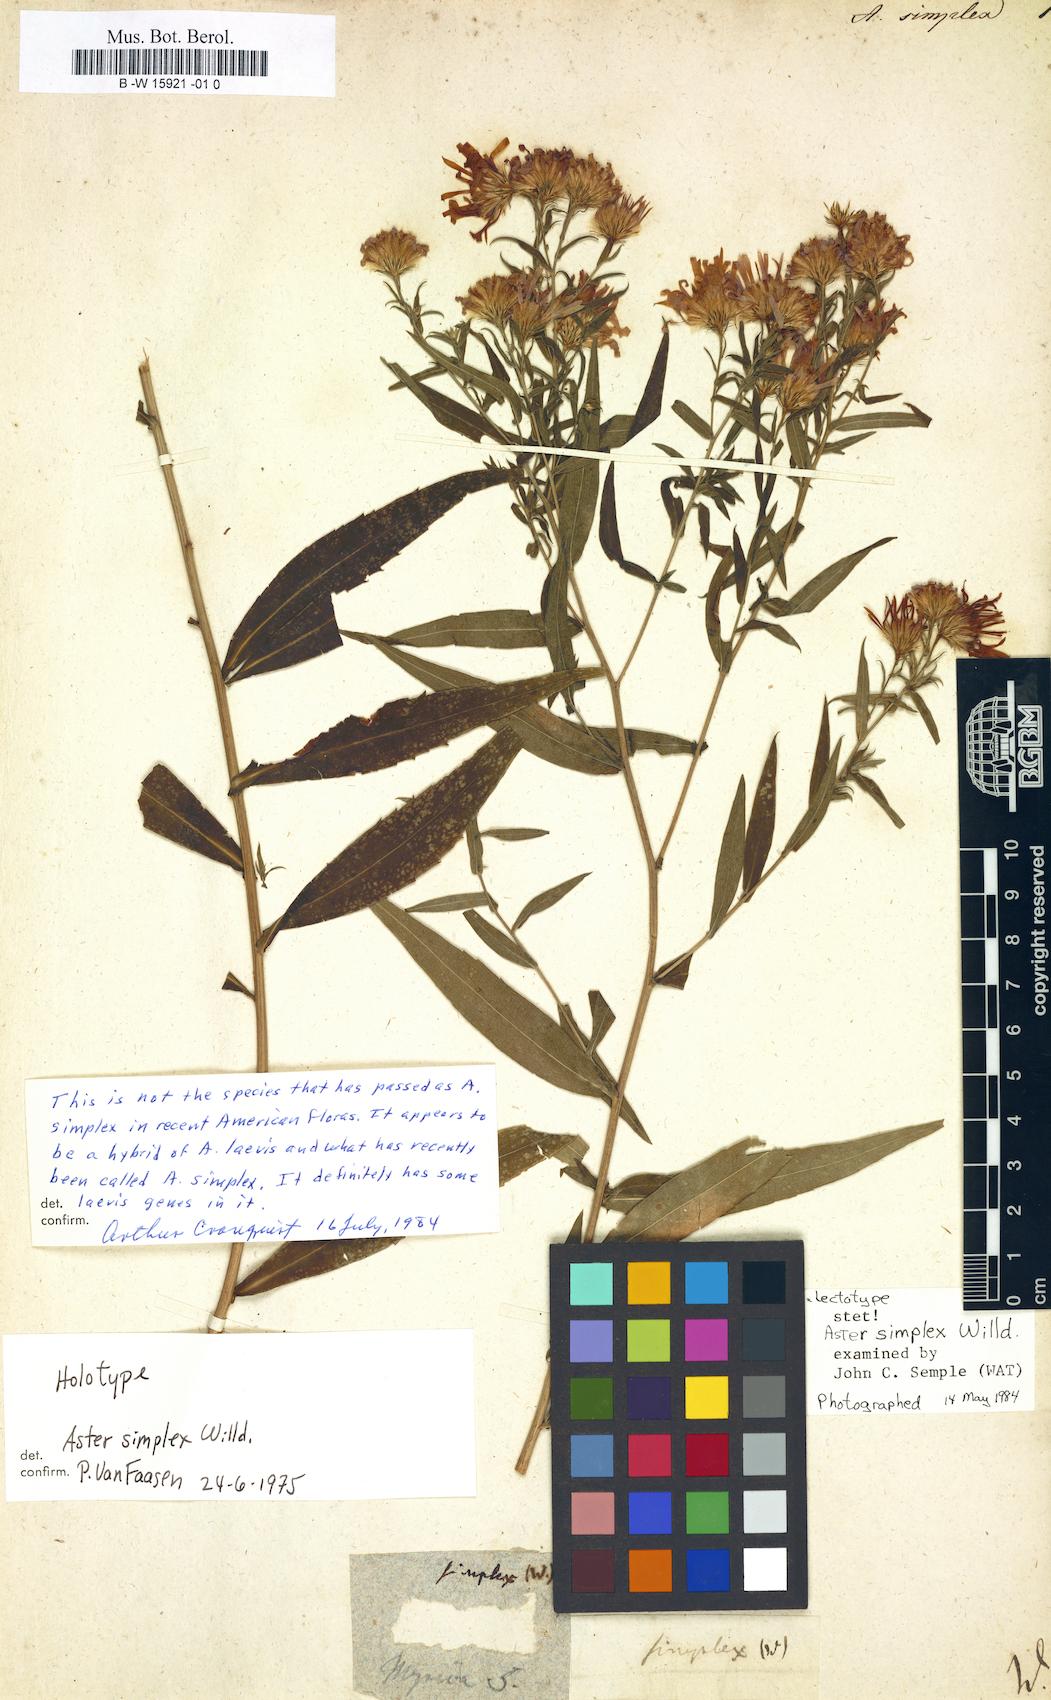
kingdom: Plantae
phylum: Tracheophyta
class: Magnoliopsida
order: Asterales
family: Asteraceae
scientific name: Asteraceae
